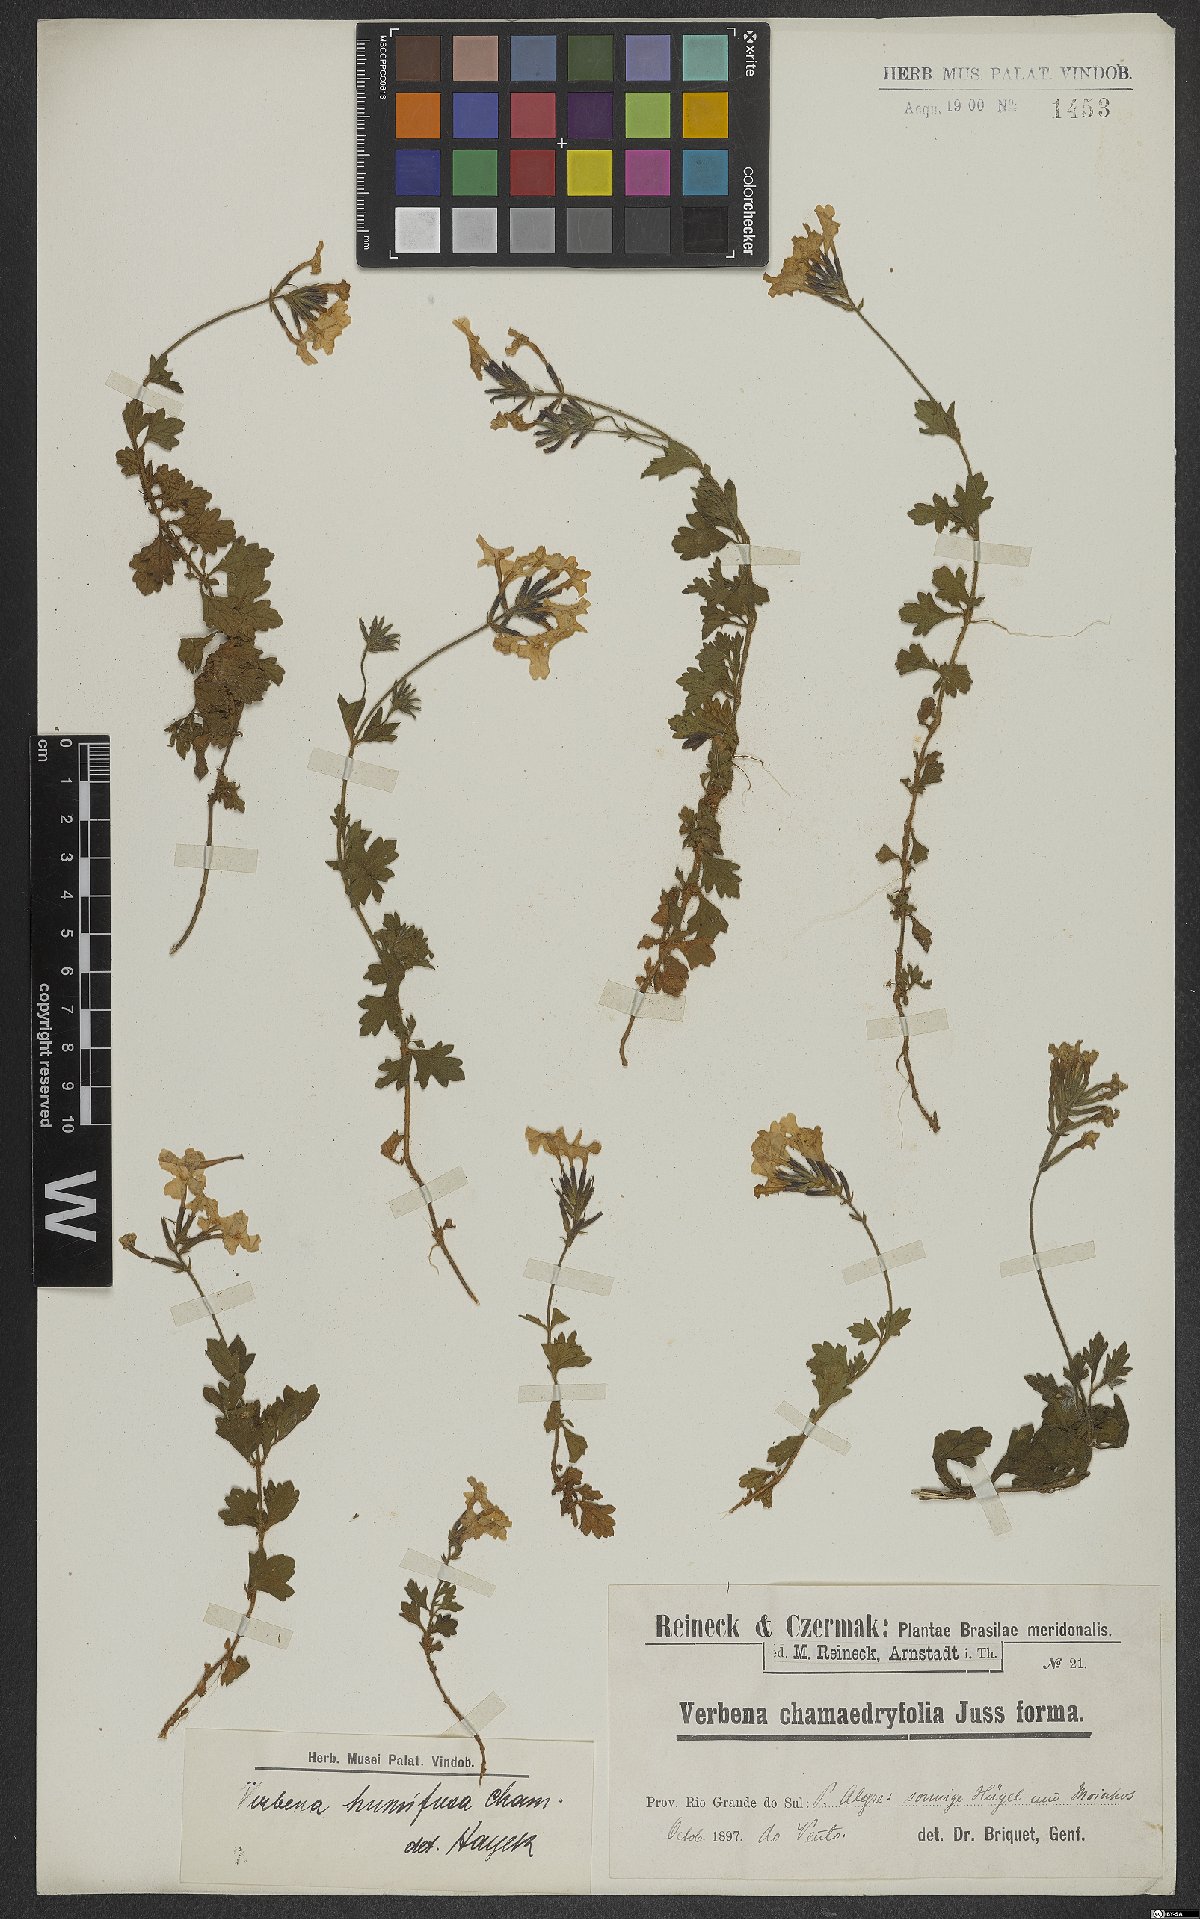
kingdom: Plantae
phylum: Tracheophyta
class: Magnoliopsida
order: Lamiales
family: Verbenaceae
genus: Verbena
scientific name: Verbena humifusa
